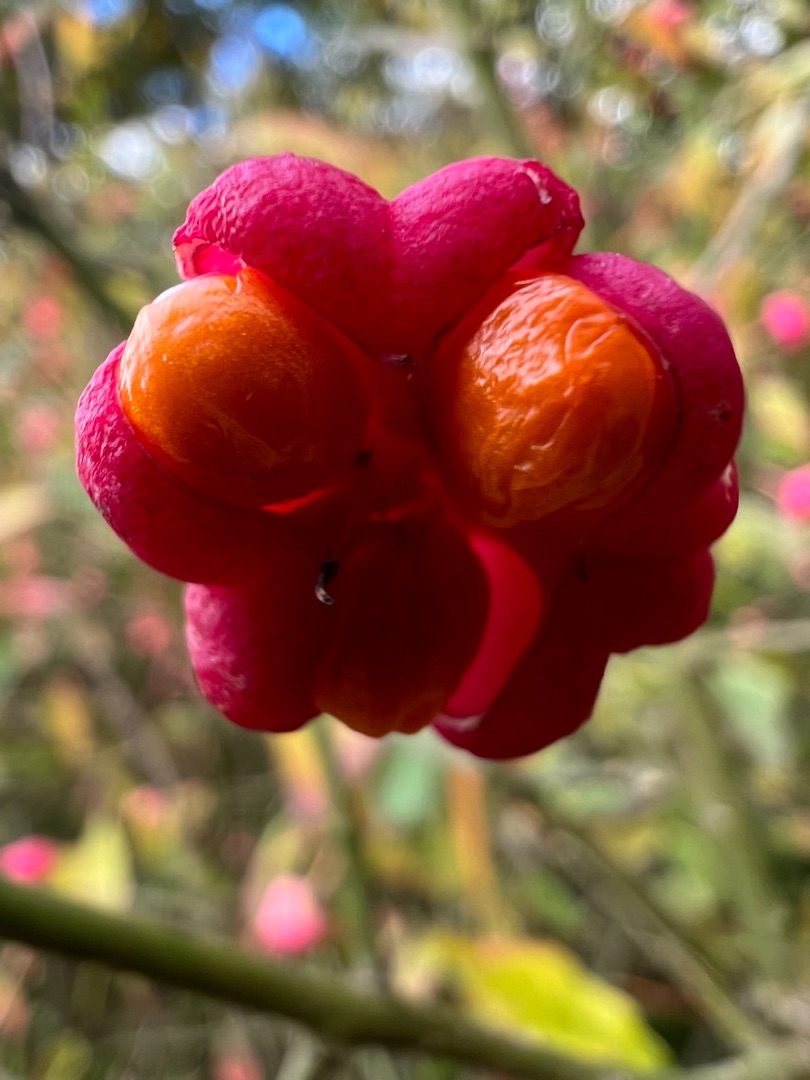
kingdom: Plantae
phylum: Tracheophyta
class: Magnoliopsida
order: Celastrales
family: Celastraceae
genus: Euonymus
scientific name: Euonymus europaeus
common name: Benved
